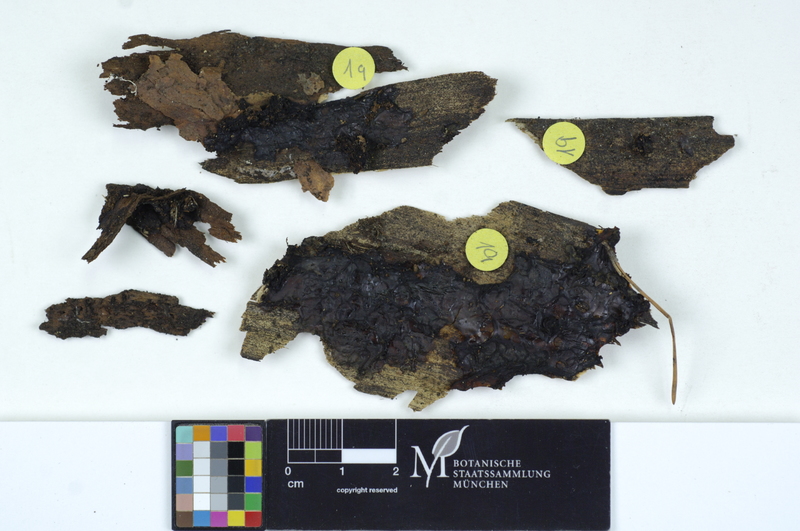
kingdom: Fungi
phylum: Basidiomycota
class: Agaricomycetes
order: Auriculariales
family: Auriculariaceae
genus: Exidia
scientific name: Exidia saccharina
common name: Pine jelly
